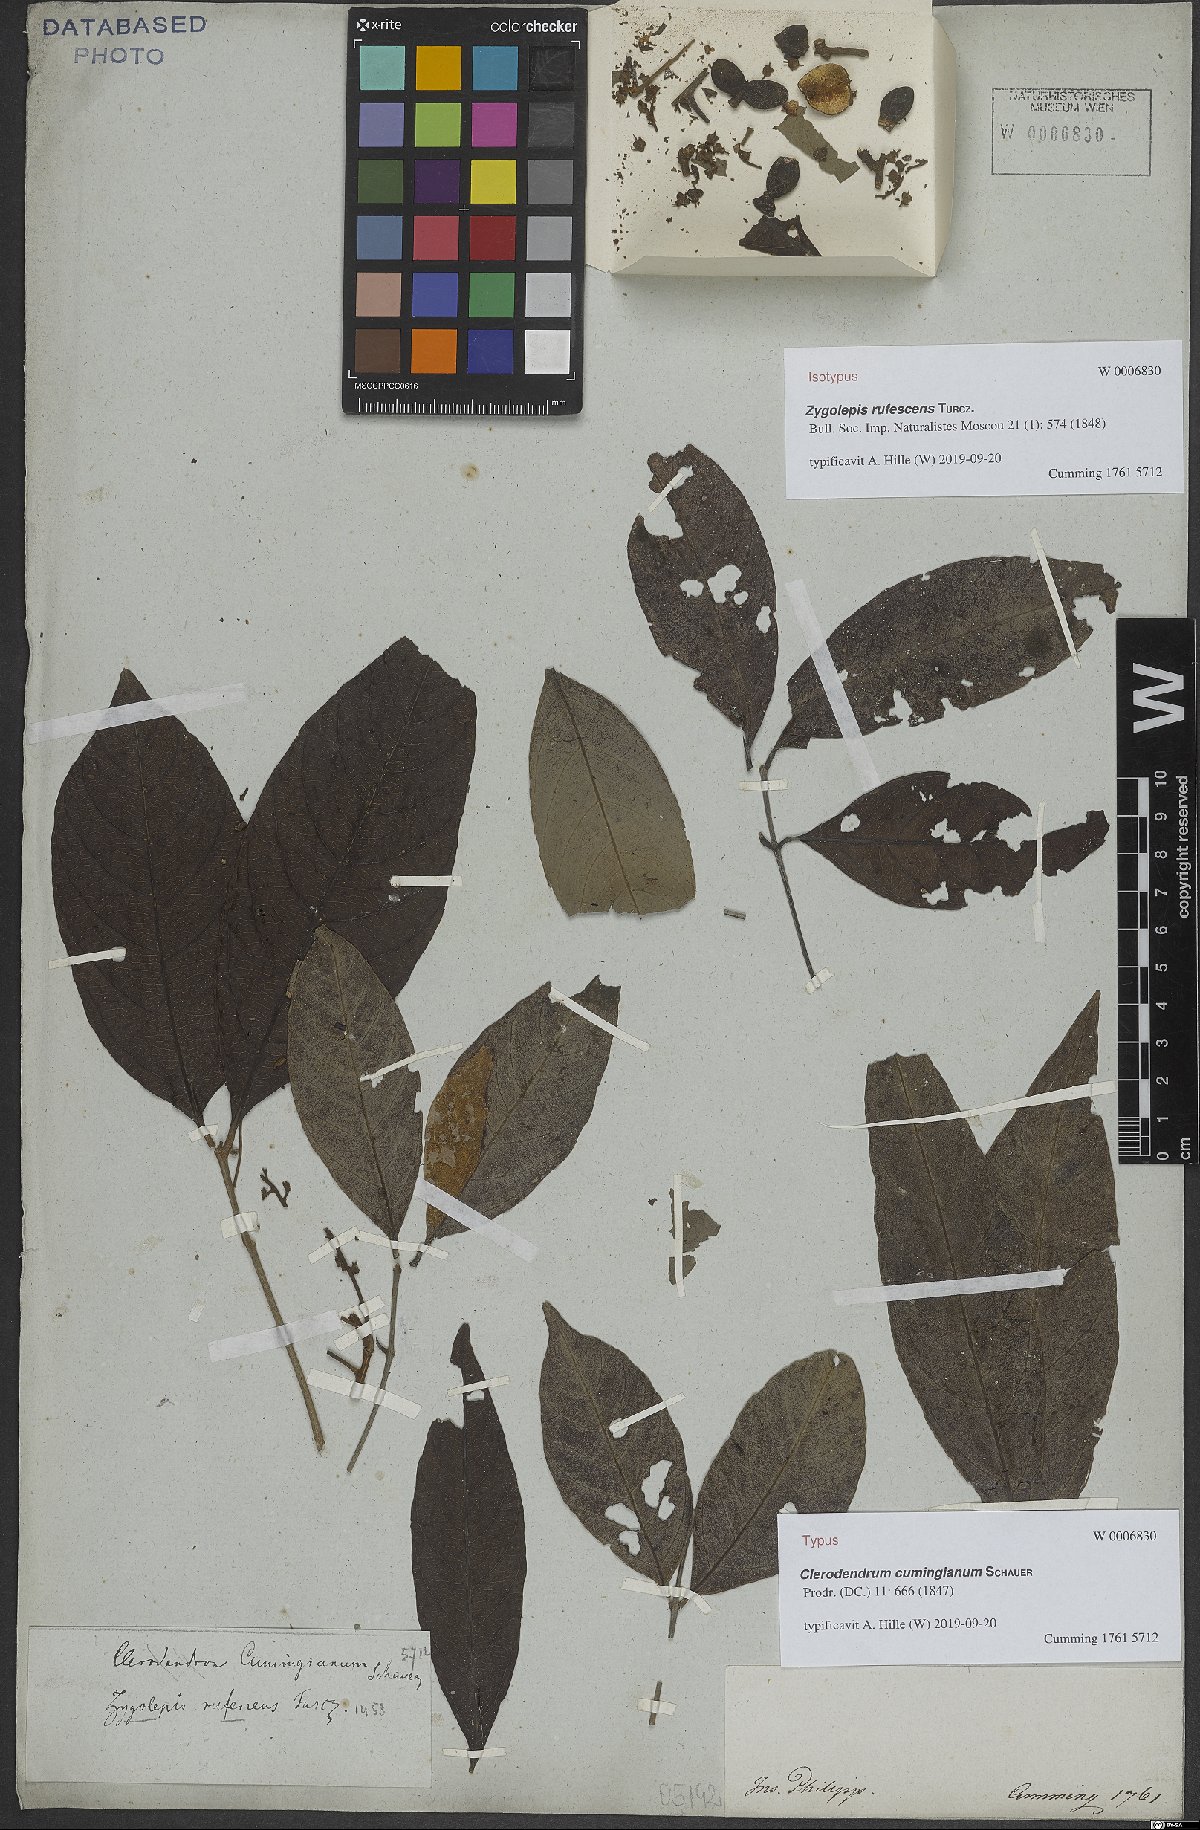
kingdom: Plantae
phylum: Tracheophyta
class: Magnoliopsida
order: Lamiales
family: Lamiaceae
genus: Clerodendrum
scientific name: Clerodendrum lanuginosum
